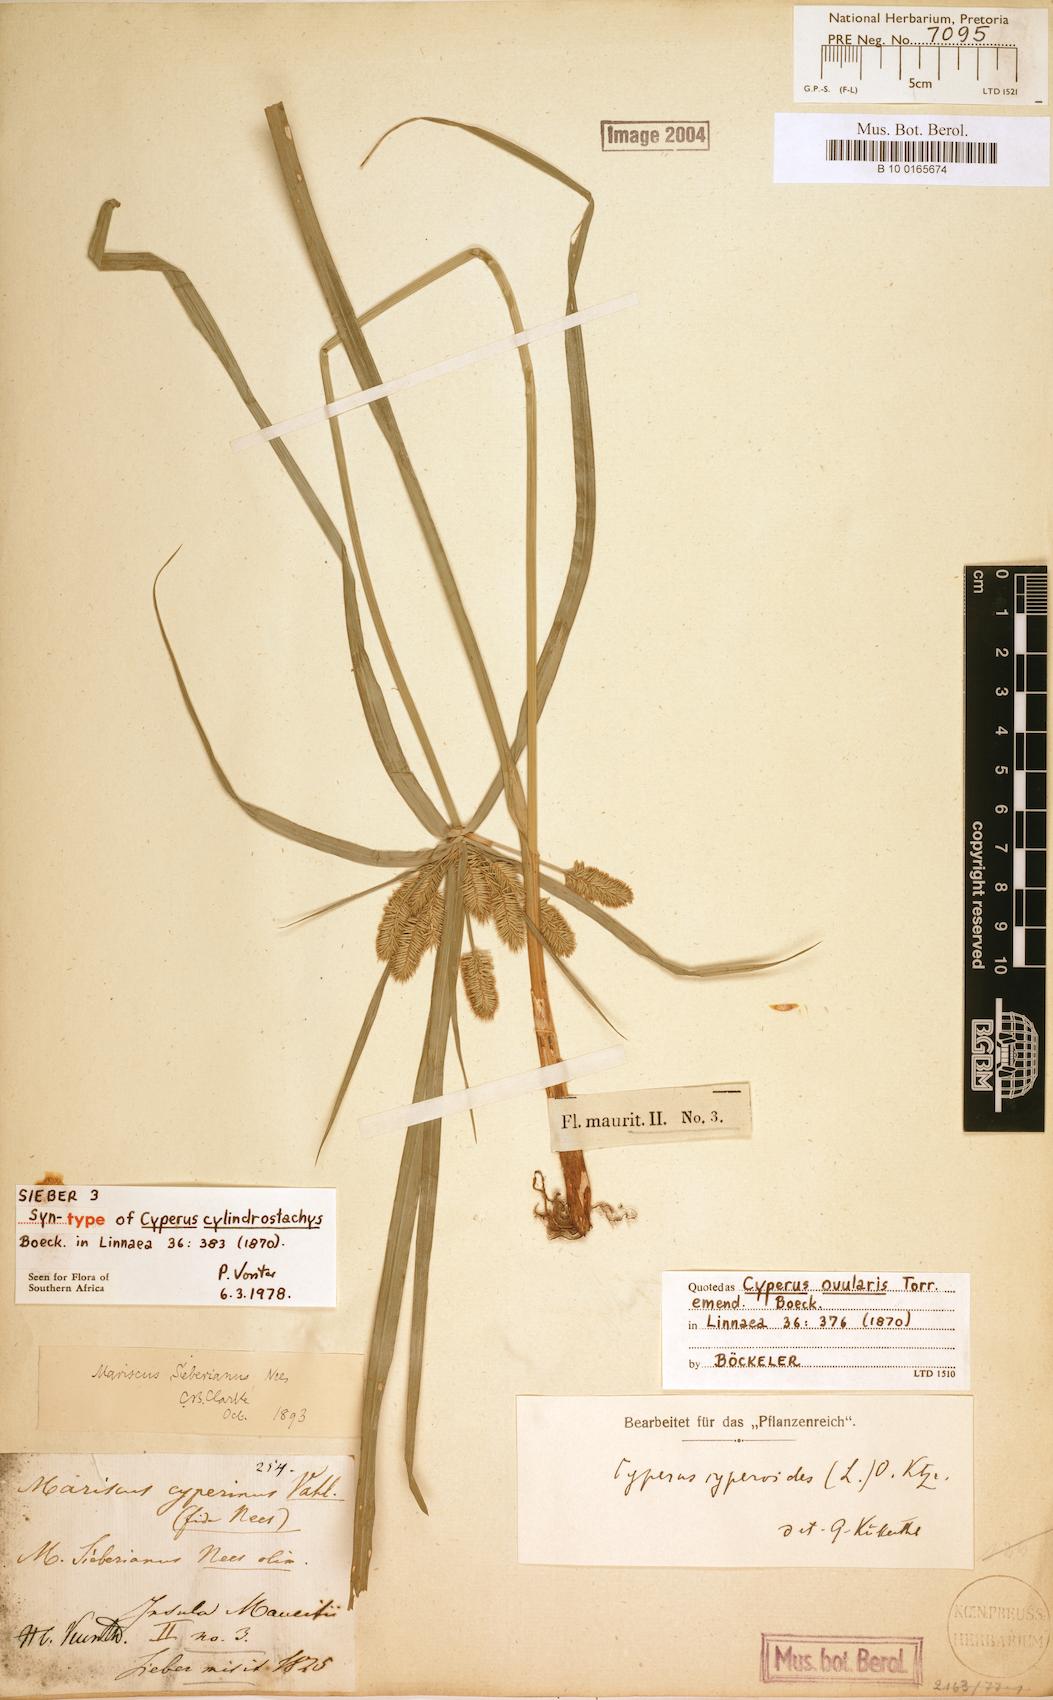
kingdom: Plantae
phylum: Tracheophyta
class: Liliopsida
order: Poales
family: Cyperaceae
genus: Cyperus
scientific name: Cyperus cyperoides
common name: Pacific island flat sedge
